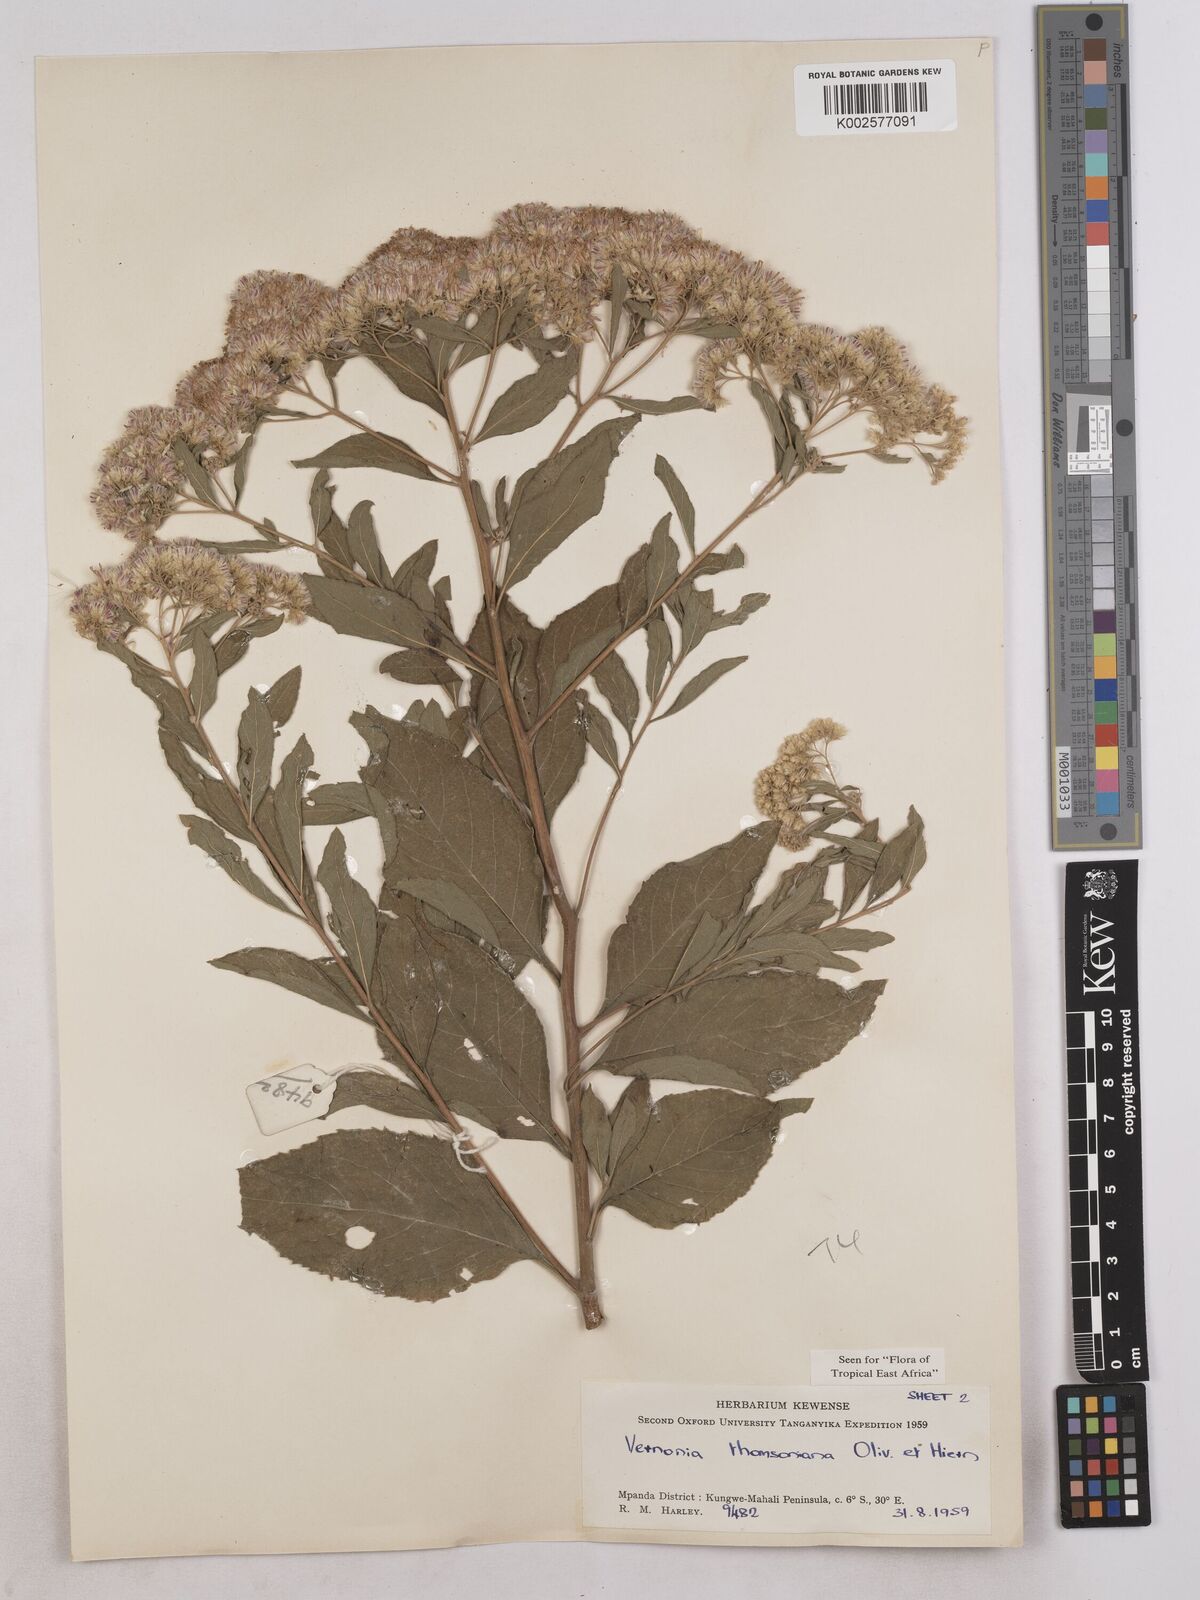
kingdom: Plantae
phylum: Tracheophyta
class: Magnoliopsida
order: Asterales
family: Asteraceae
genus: Gymnanthemum
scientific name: Gymnanthemum thomsonianum
